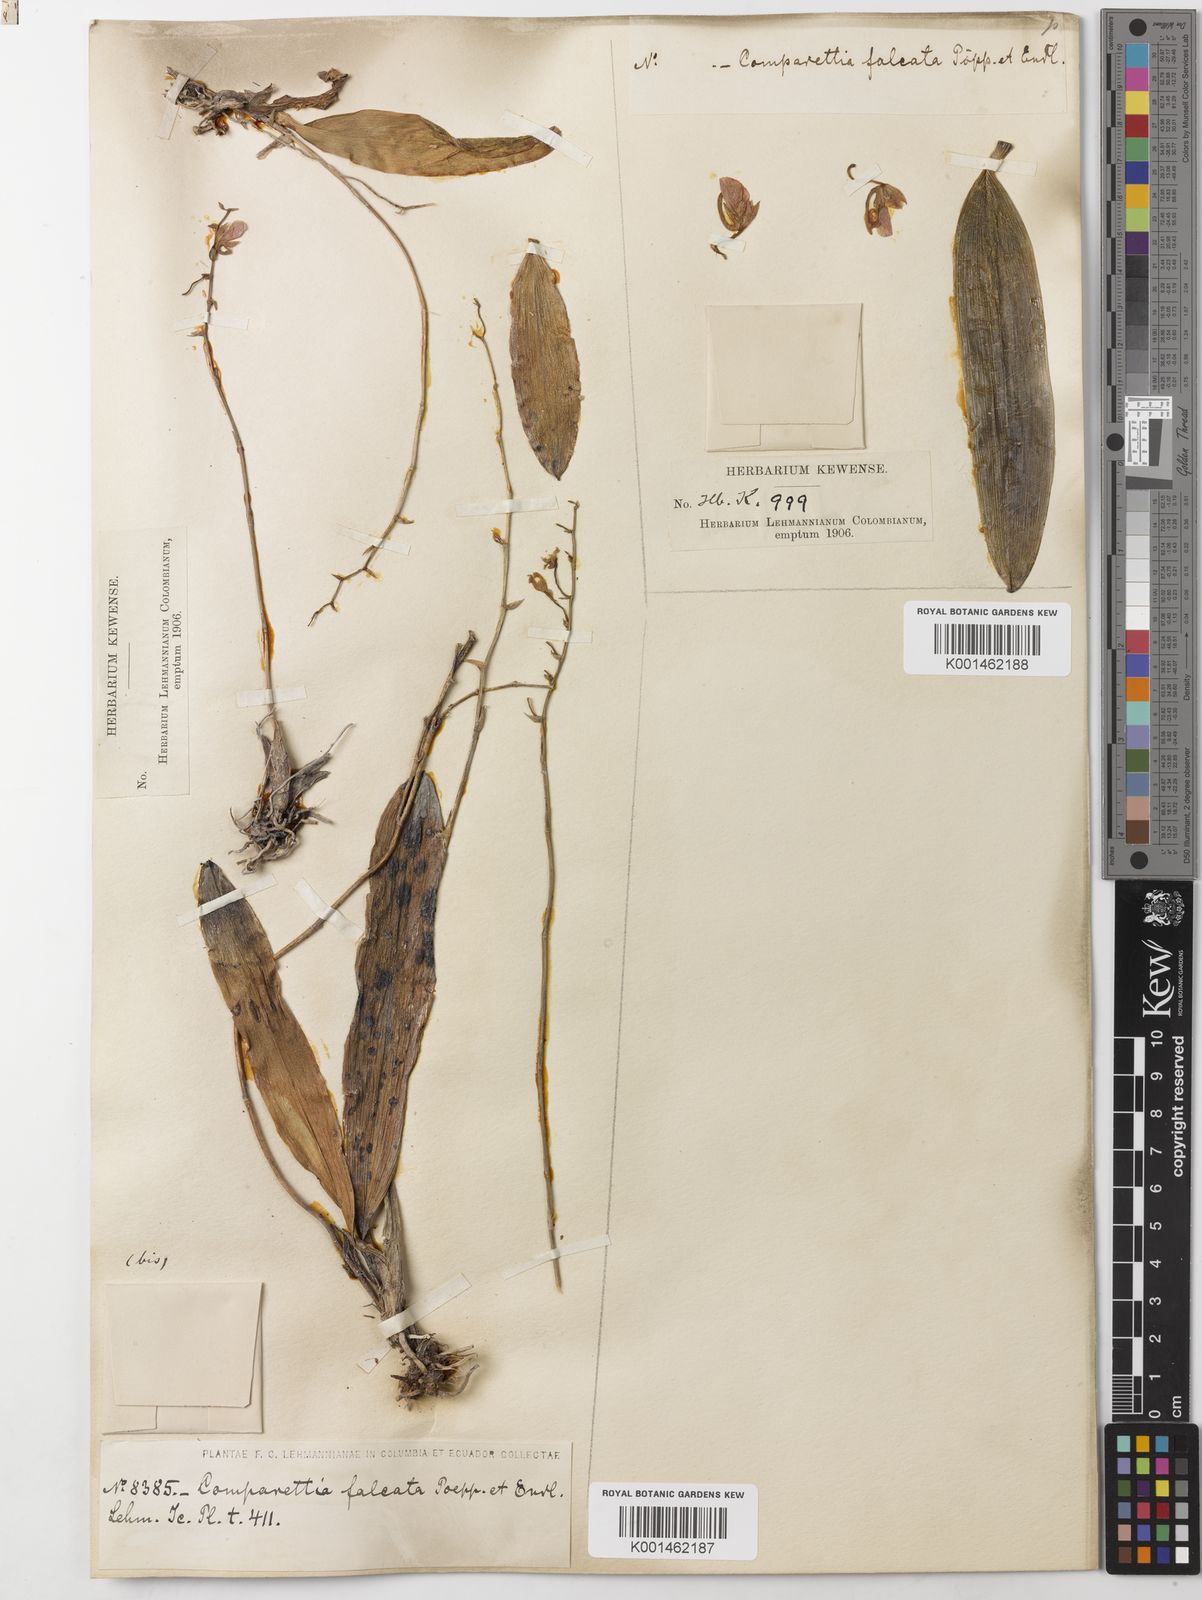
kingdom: Plantae
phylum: Tracheophyta
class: Liliopsida
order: Asparagales
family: Orchidaceae
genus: Comparettia
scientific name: Comparettia falcata
